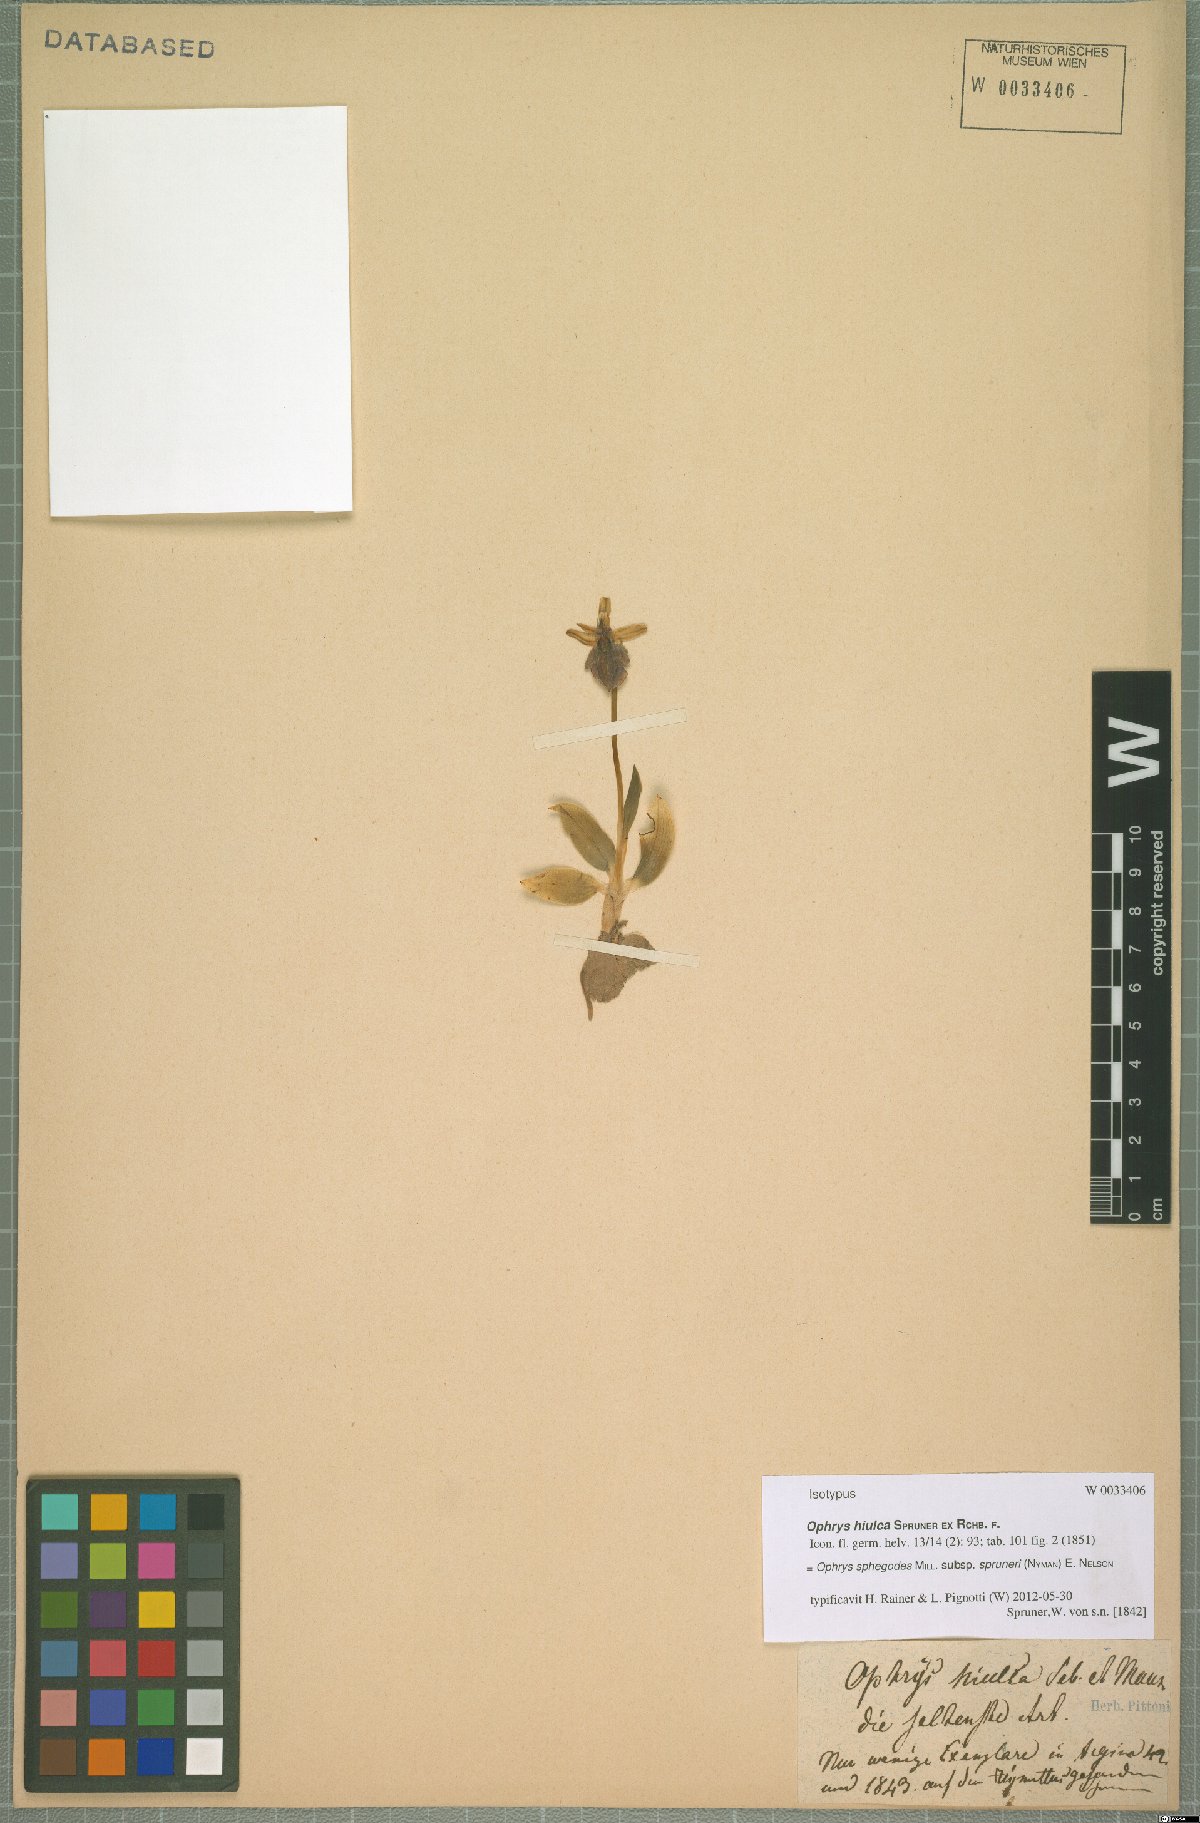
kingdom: Plantae
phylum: Tracheophyta
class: Liliopsida
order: Asparagales
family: Orchidaceae
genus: Ophrys
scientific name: Ophrys sphegodes
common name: Early spider-orchid
